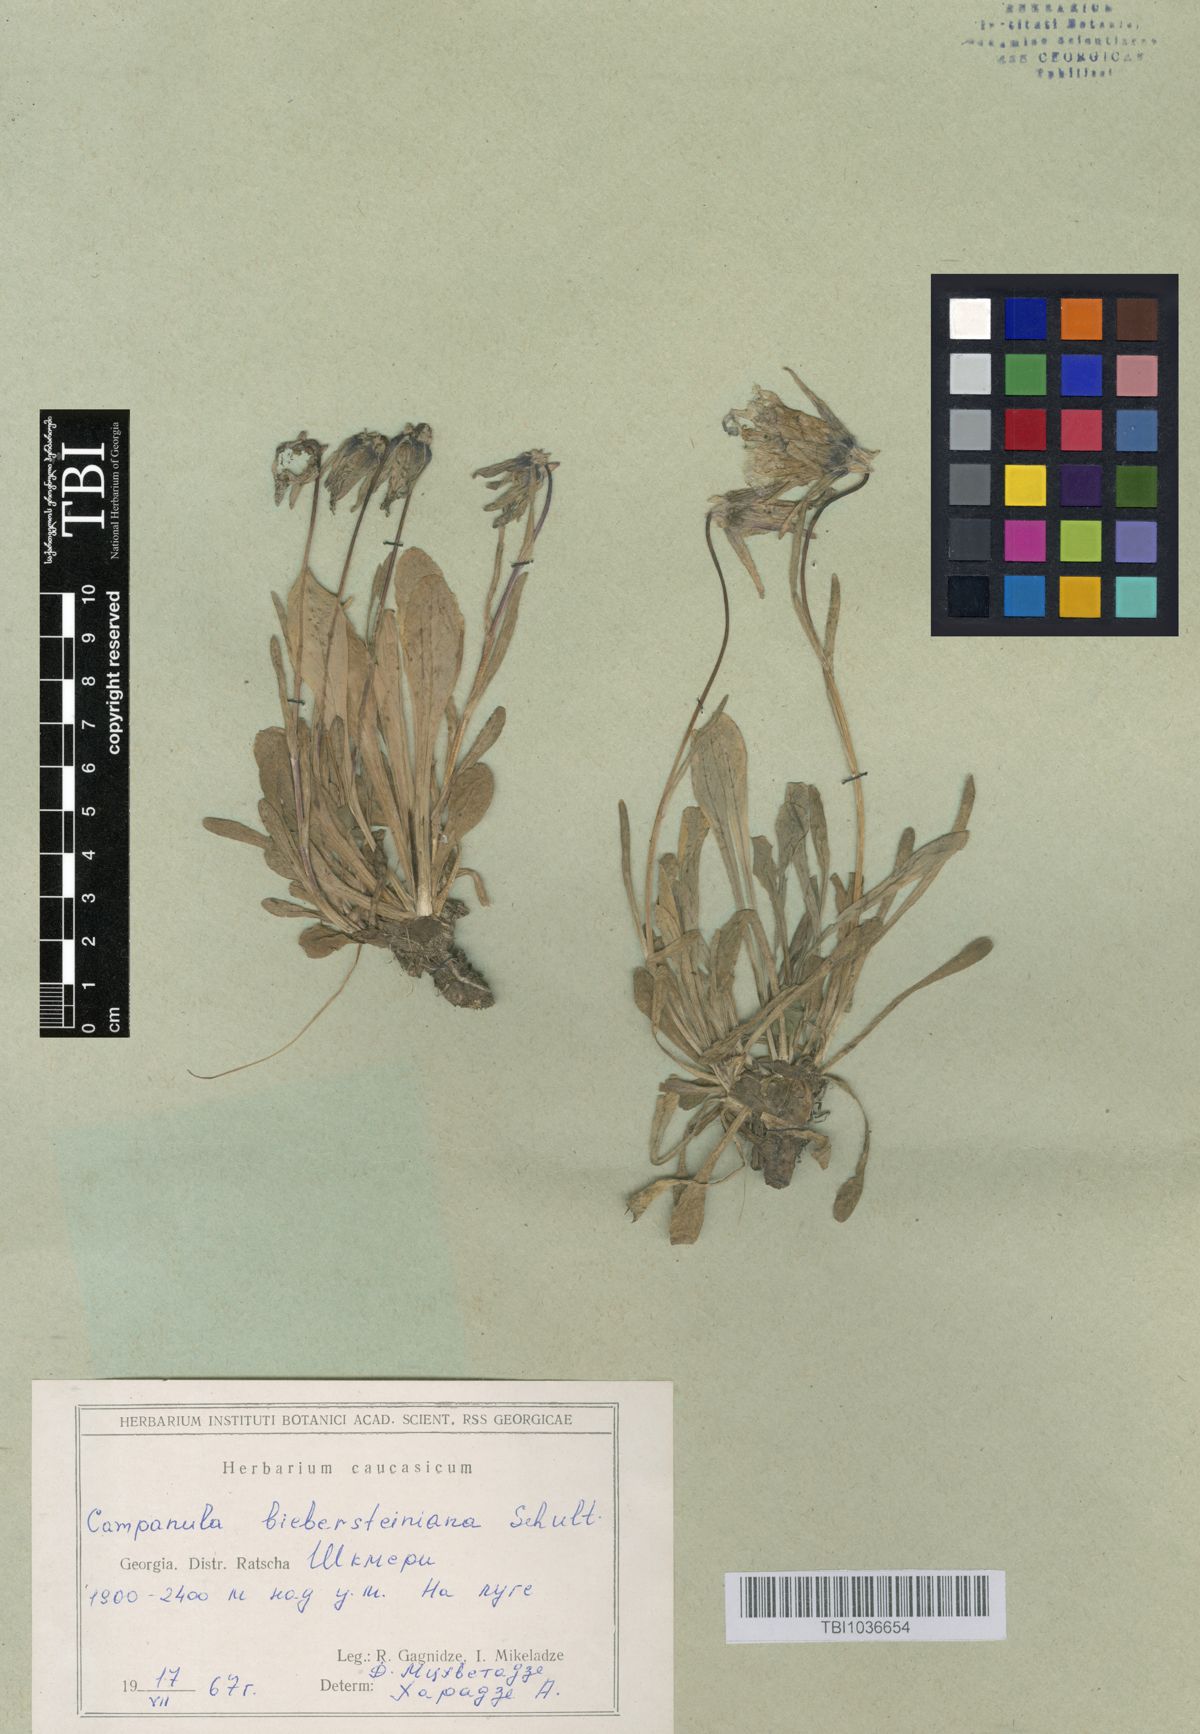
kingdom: Plantae
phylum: Tracheophyta
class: Magnoliopsida
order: Asterales
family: Campanulaceae
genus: Campanula
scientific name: Campanula tridentata
